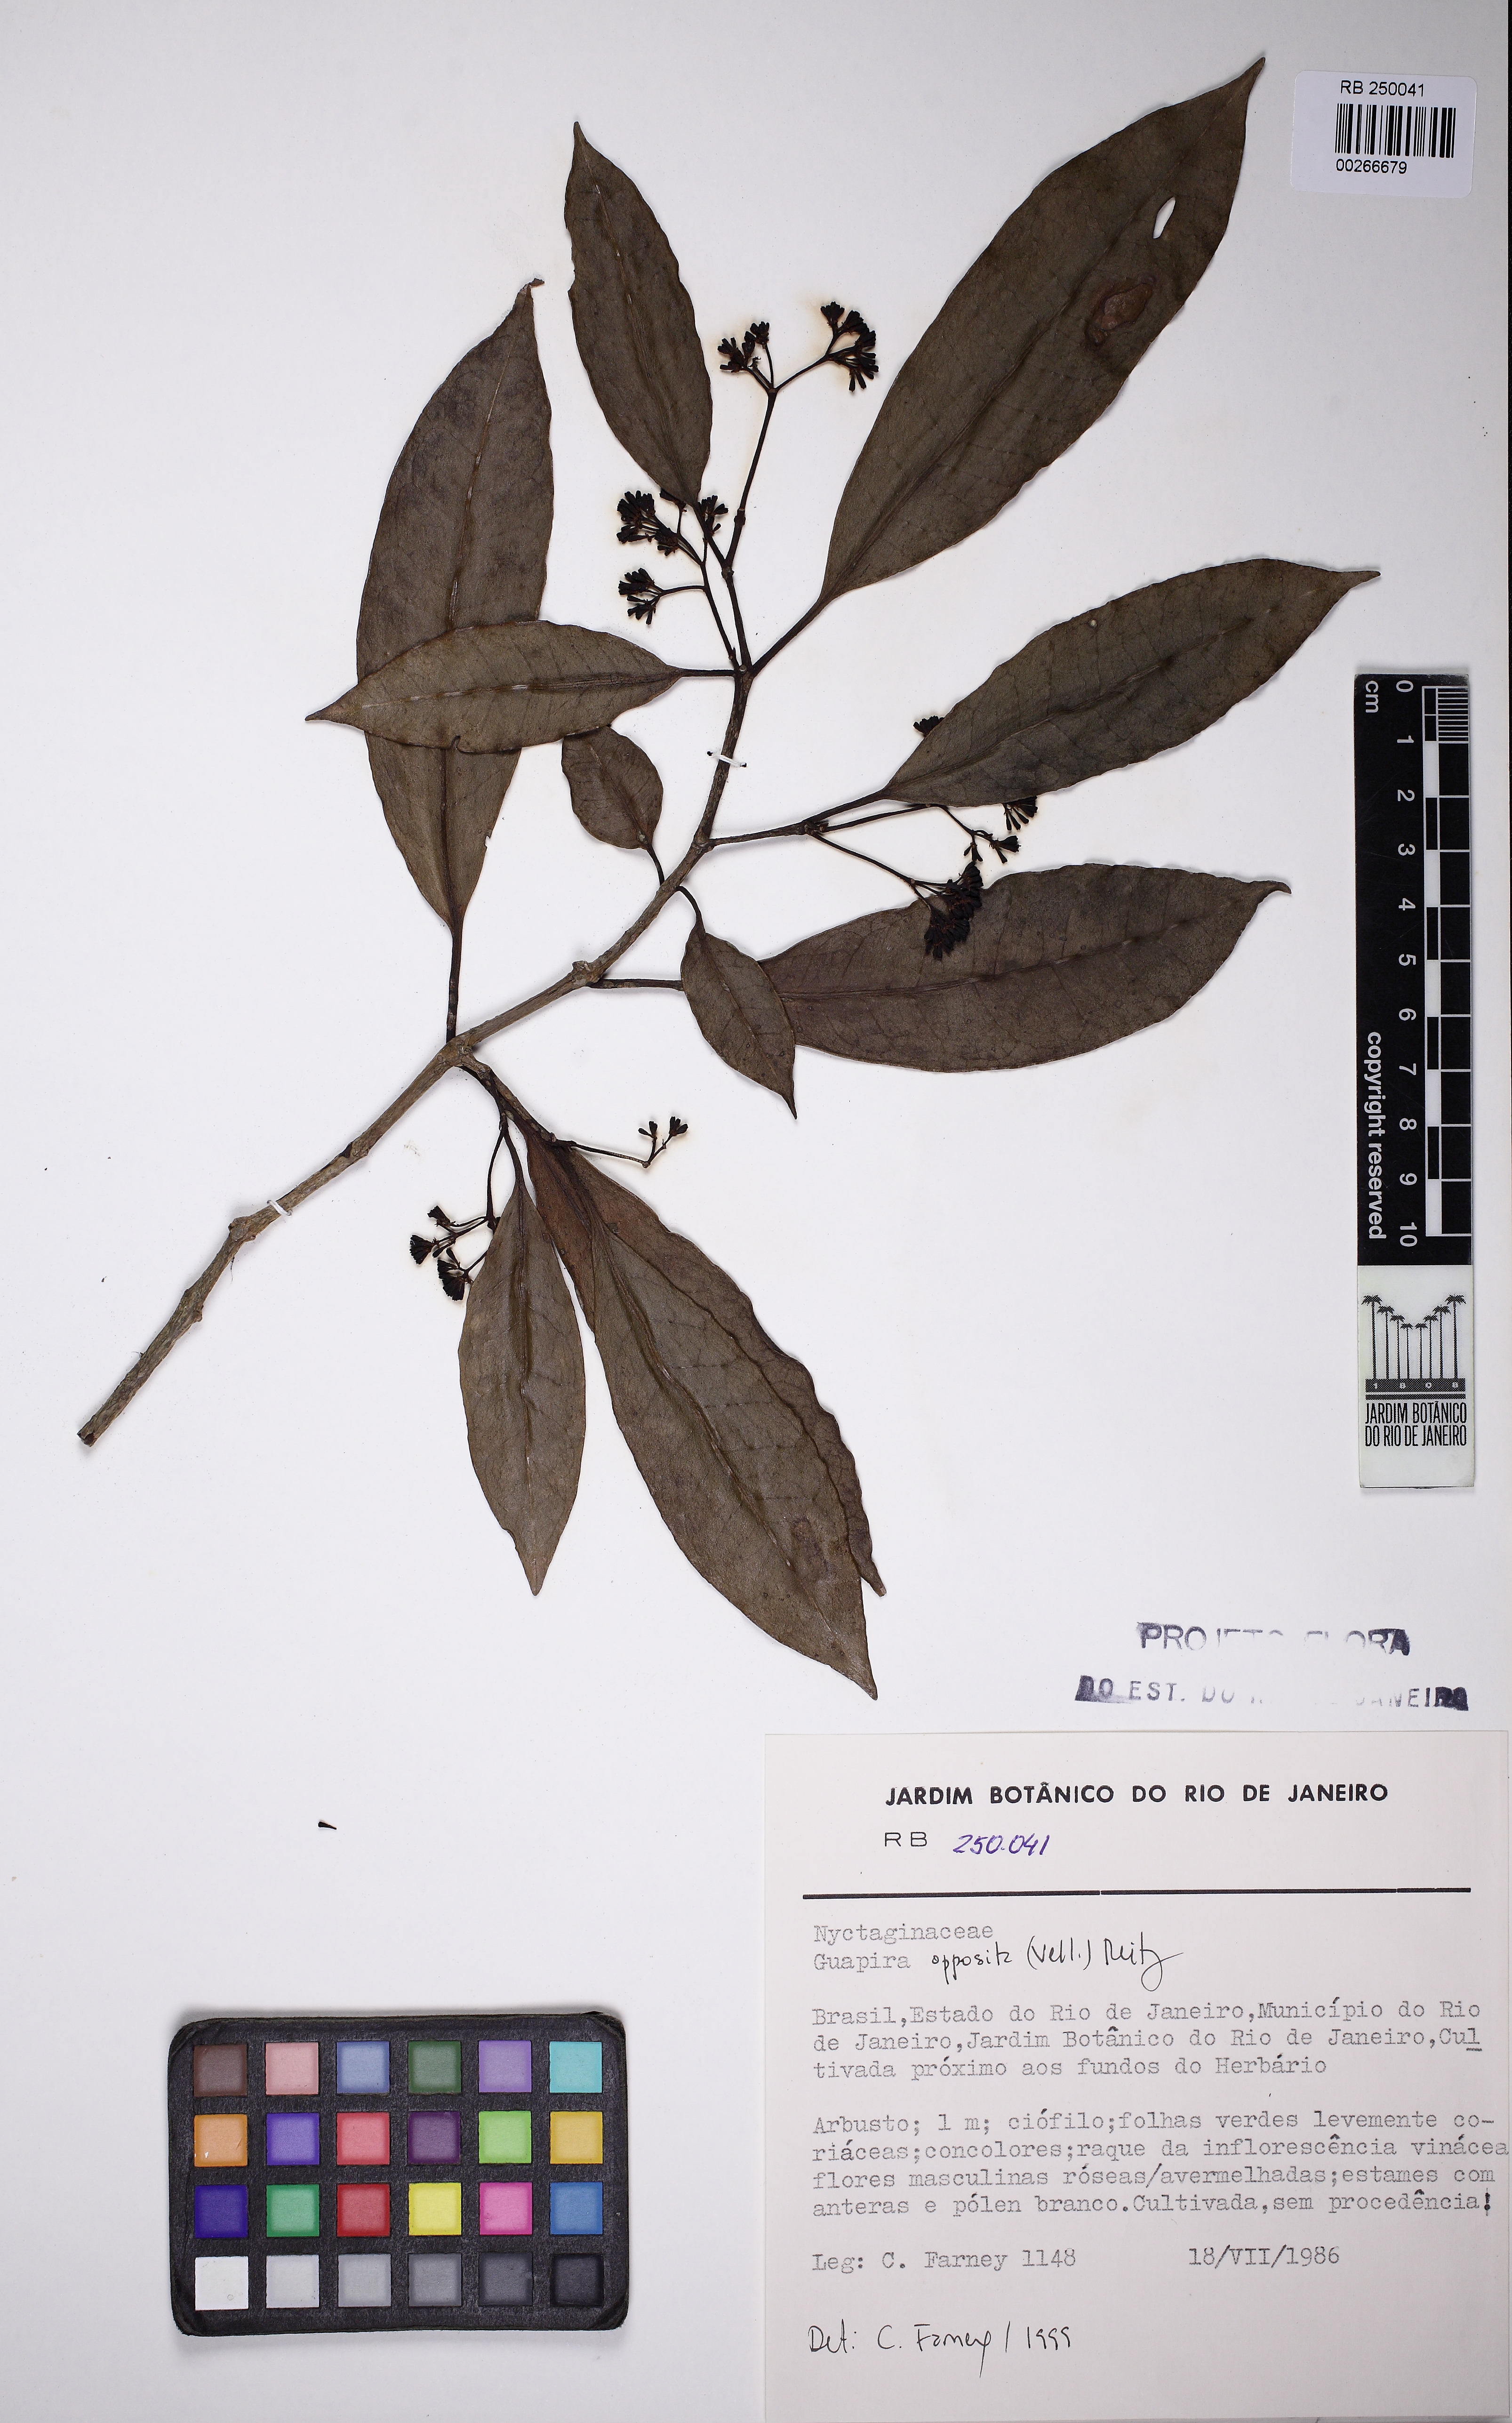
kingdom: Plantae
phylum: Tracheophyta
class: Magnoliopsida
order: Caryophyllales
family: Nyctaginaceae
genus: Guapira
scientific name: Guapira opposita
